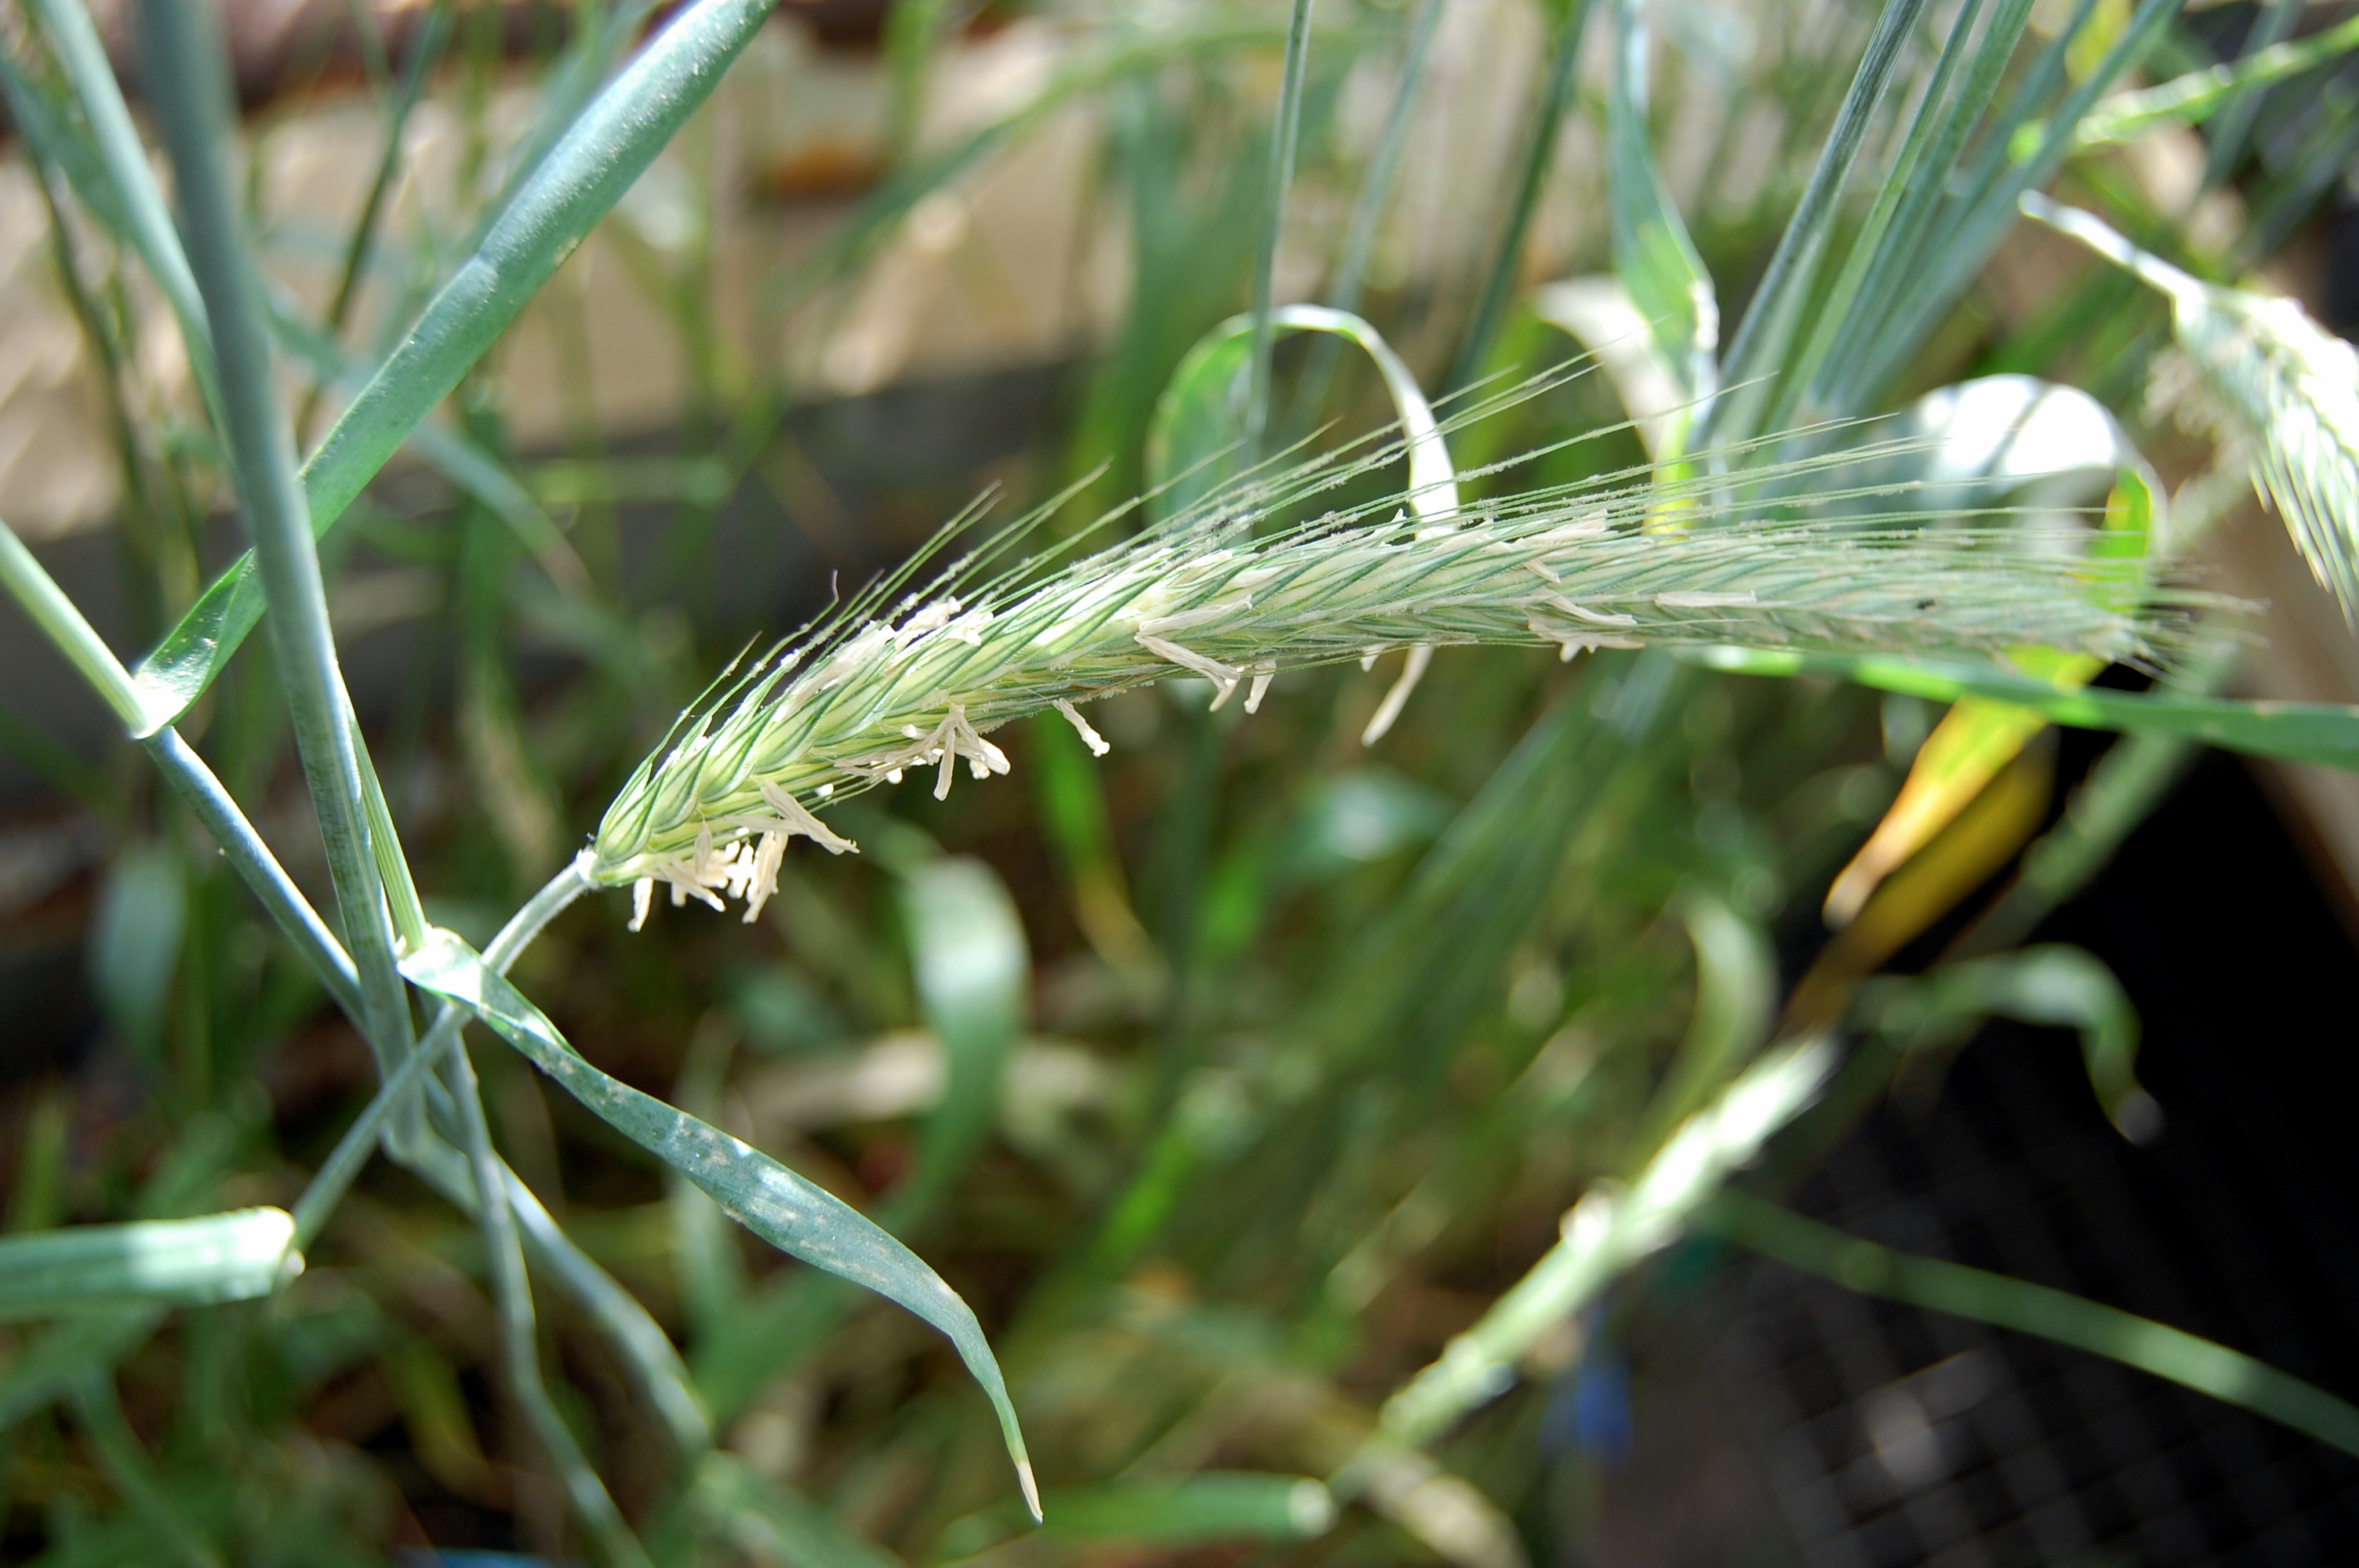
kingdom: Plantae
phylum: Tracheophyta
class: Liliopsida
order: Poales
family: Poaceae
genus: Secale
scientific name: Secale cereale
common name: Rye
